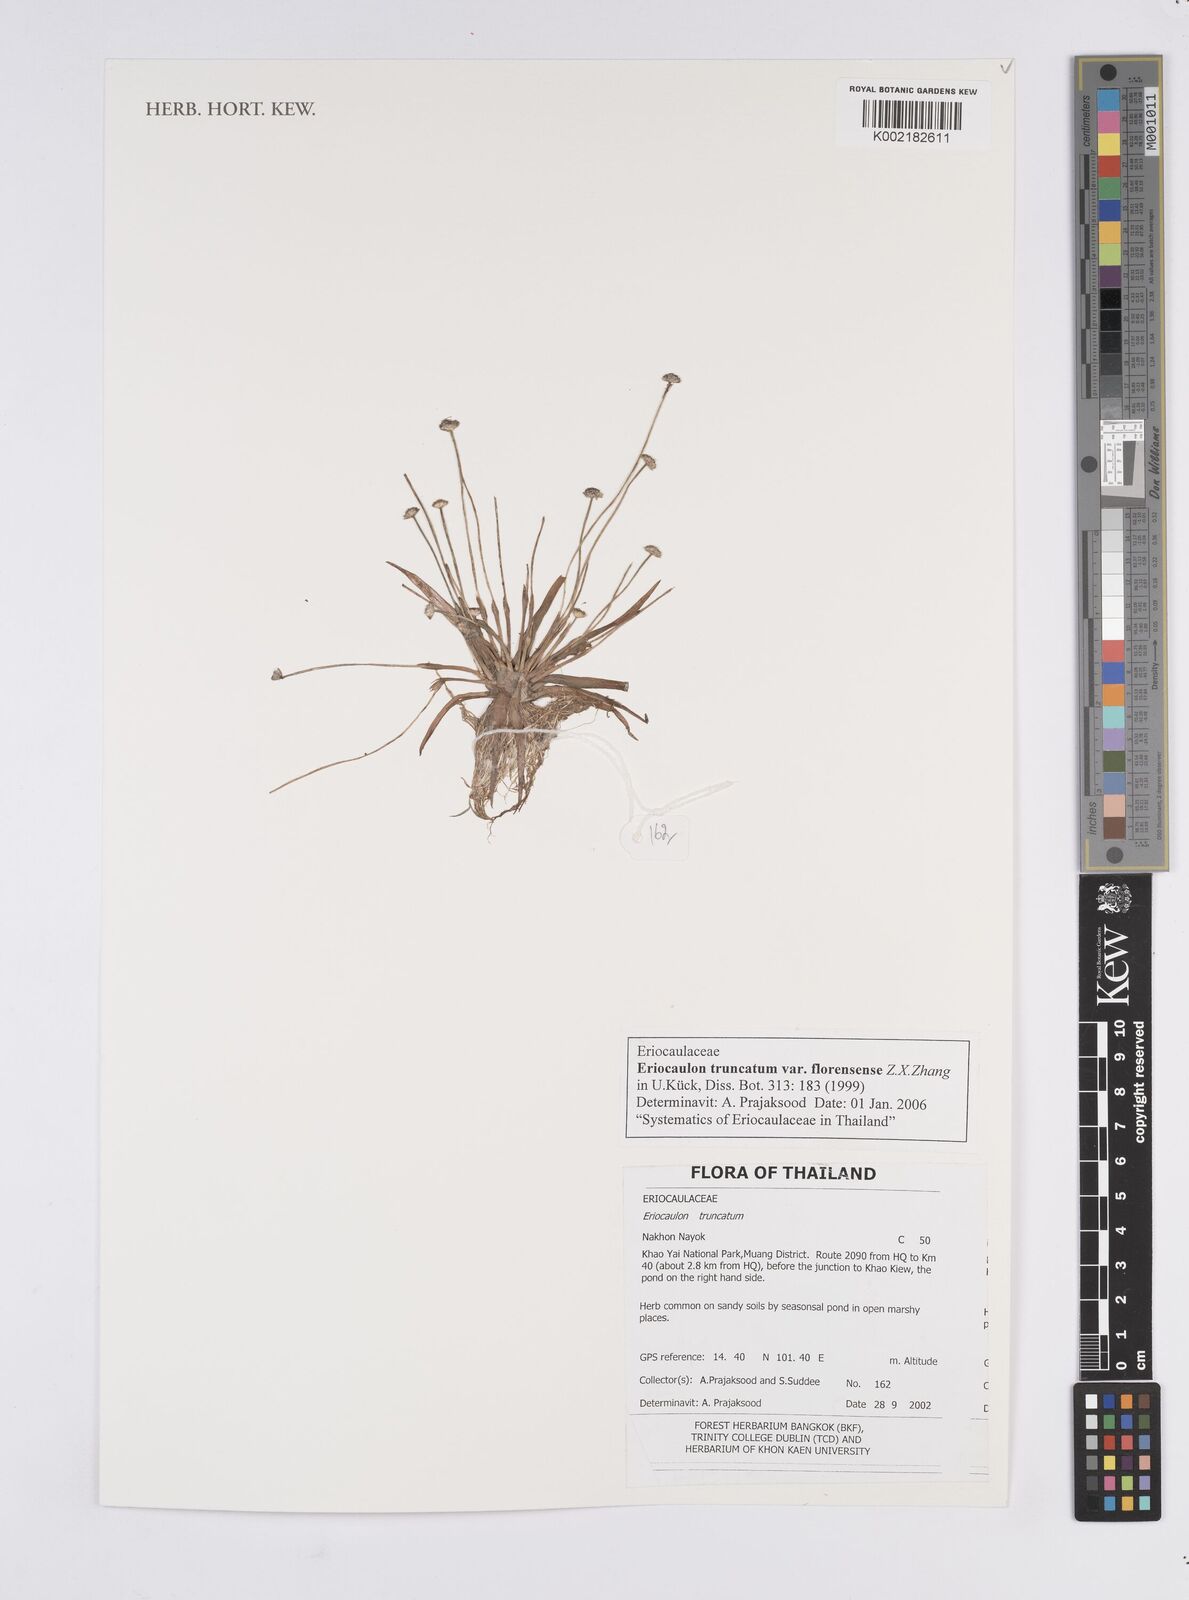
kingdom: Plantae
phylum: Tracheophyta
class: Liliopsida
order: Poales
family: Eriocaulaceae
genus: Eriocaulon
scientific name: Eriocaulon truncatum
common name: Short pipe-wort
